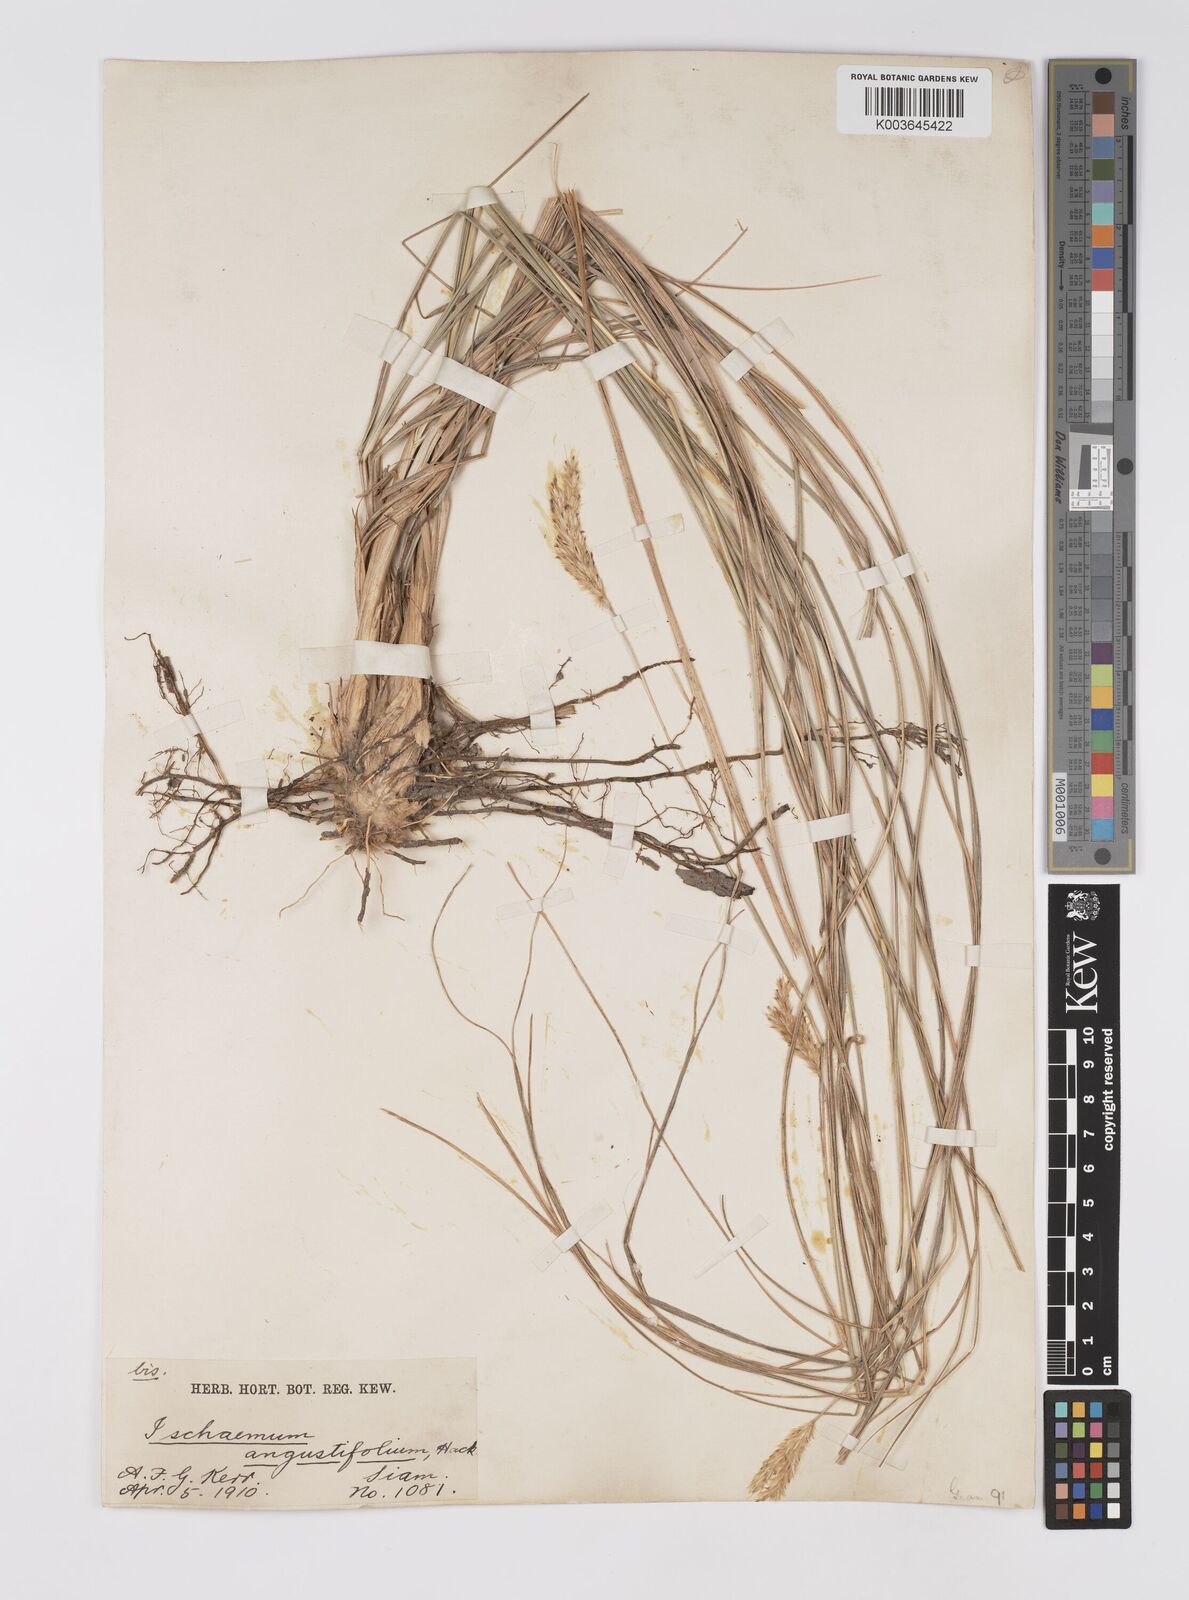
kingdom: Plantae
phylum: Tracheophyta
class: Liliopsida
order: Poales
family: Poaceae
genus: Eulaliopsis
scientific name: Eulaliopsis binata
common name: Baib grass
